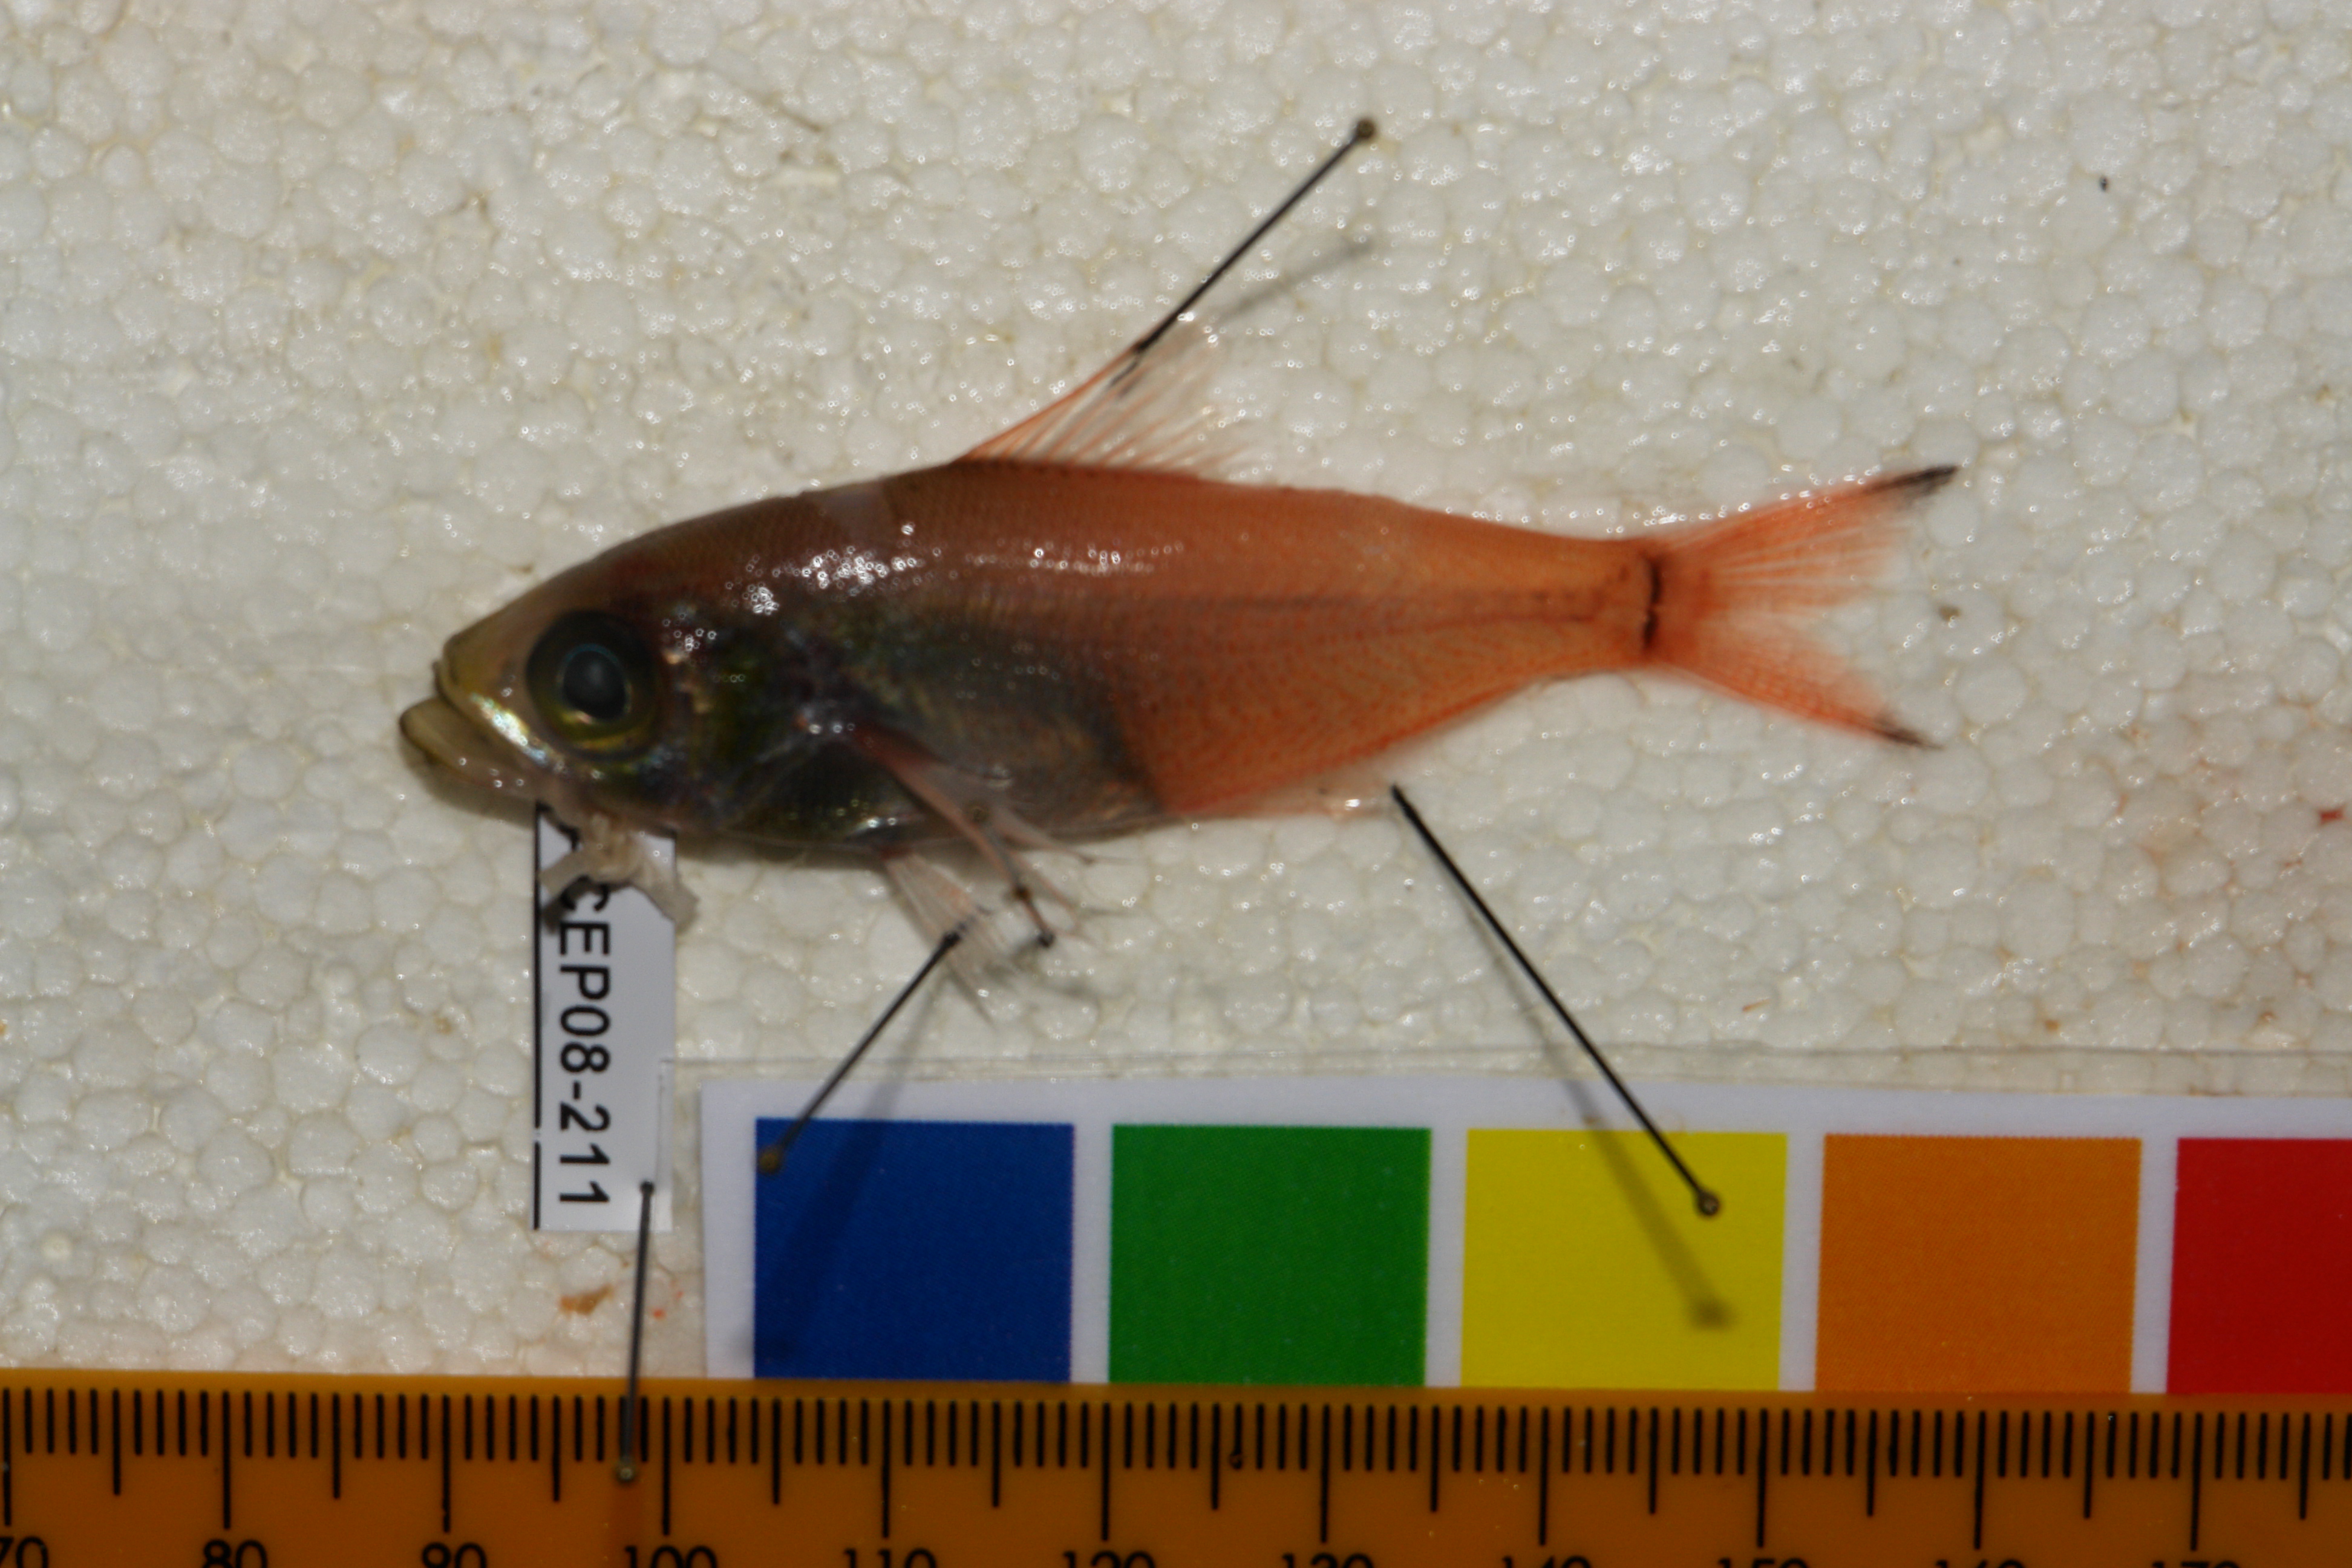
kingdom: Animalia
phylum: Chordata
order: Perciformes
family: Pempheridae
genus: Parapriacanthus
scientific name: Parapriacanthus ransonneti
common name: Pigmy sweeper
